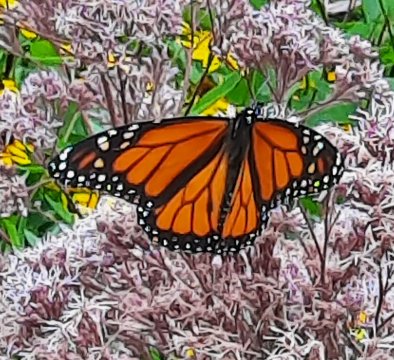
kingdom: Animalia
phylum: Arthropoda
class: Insecta
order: Lepidoptera
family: Nymphalidae
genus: Danaus
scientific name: Danaus plexippus
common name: Monarch
